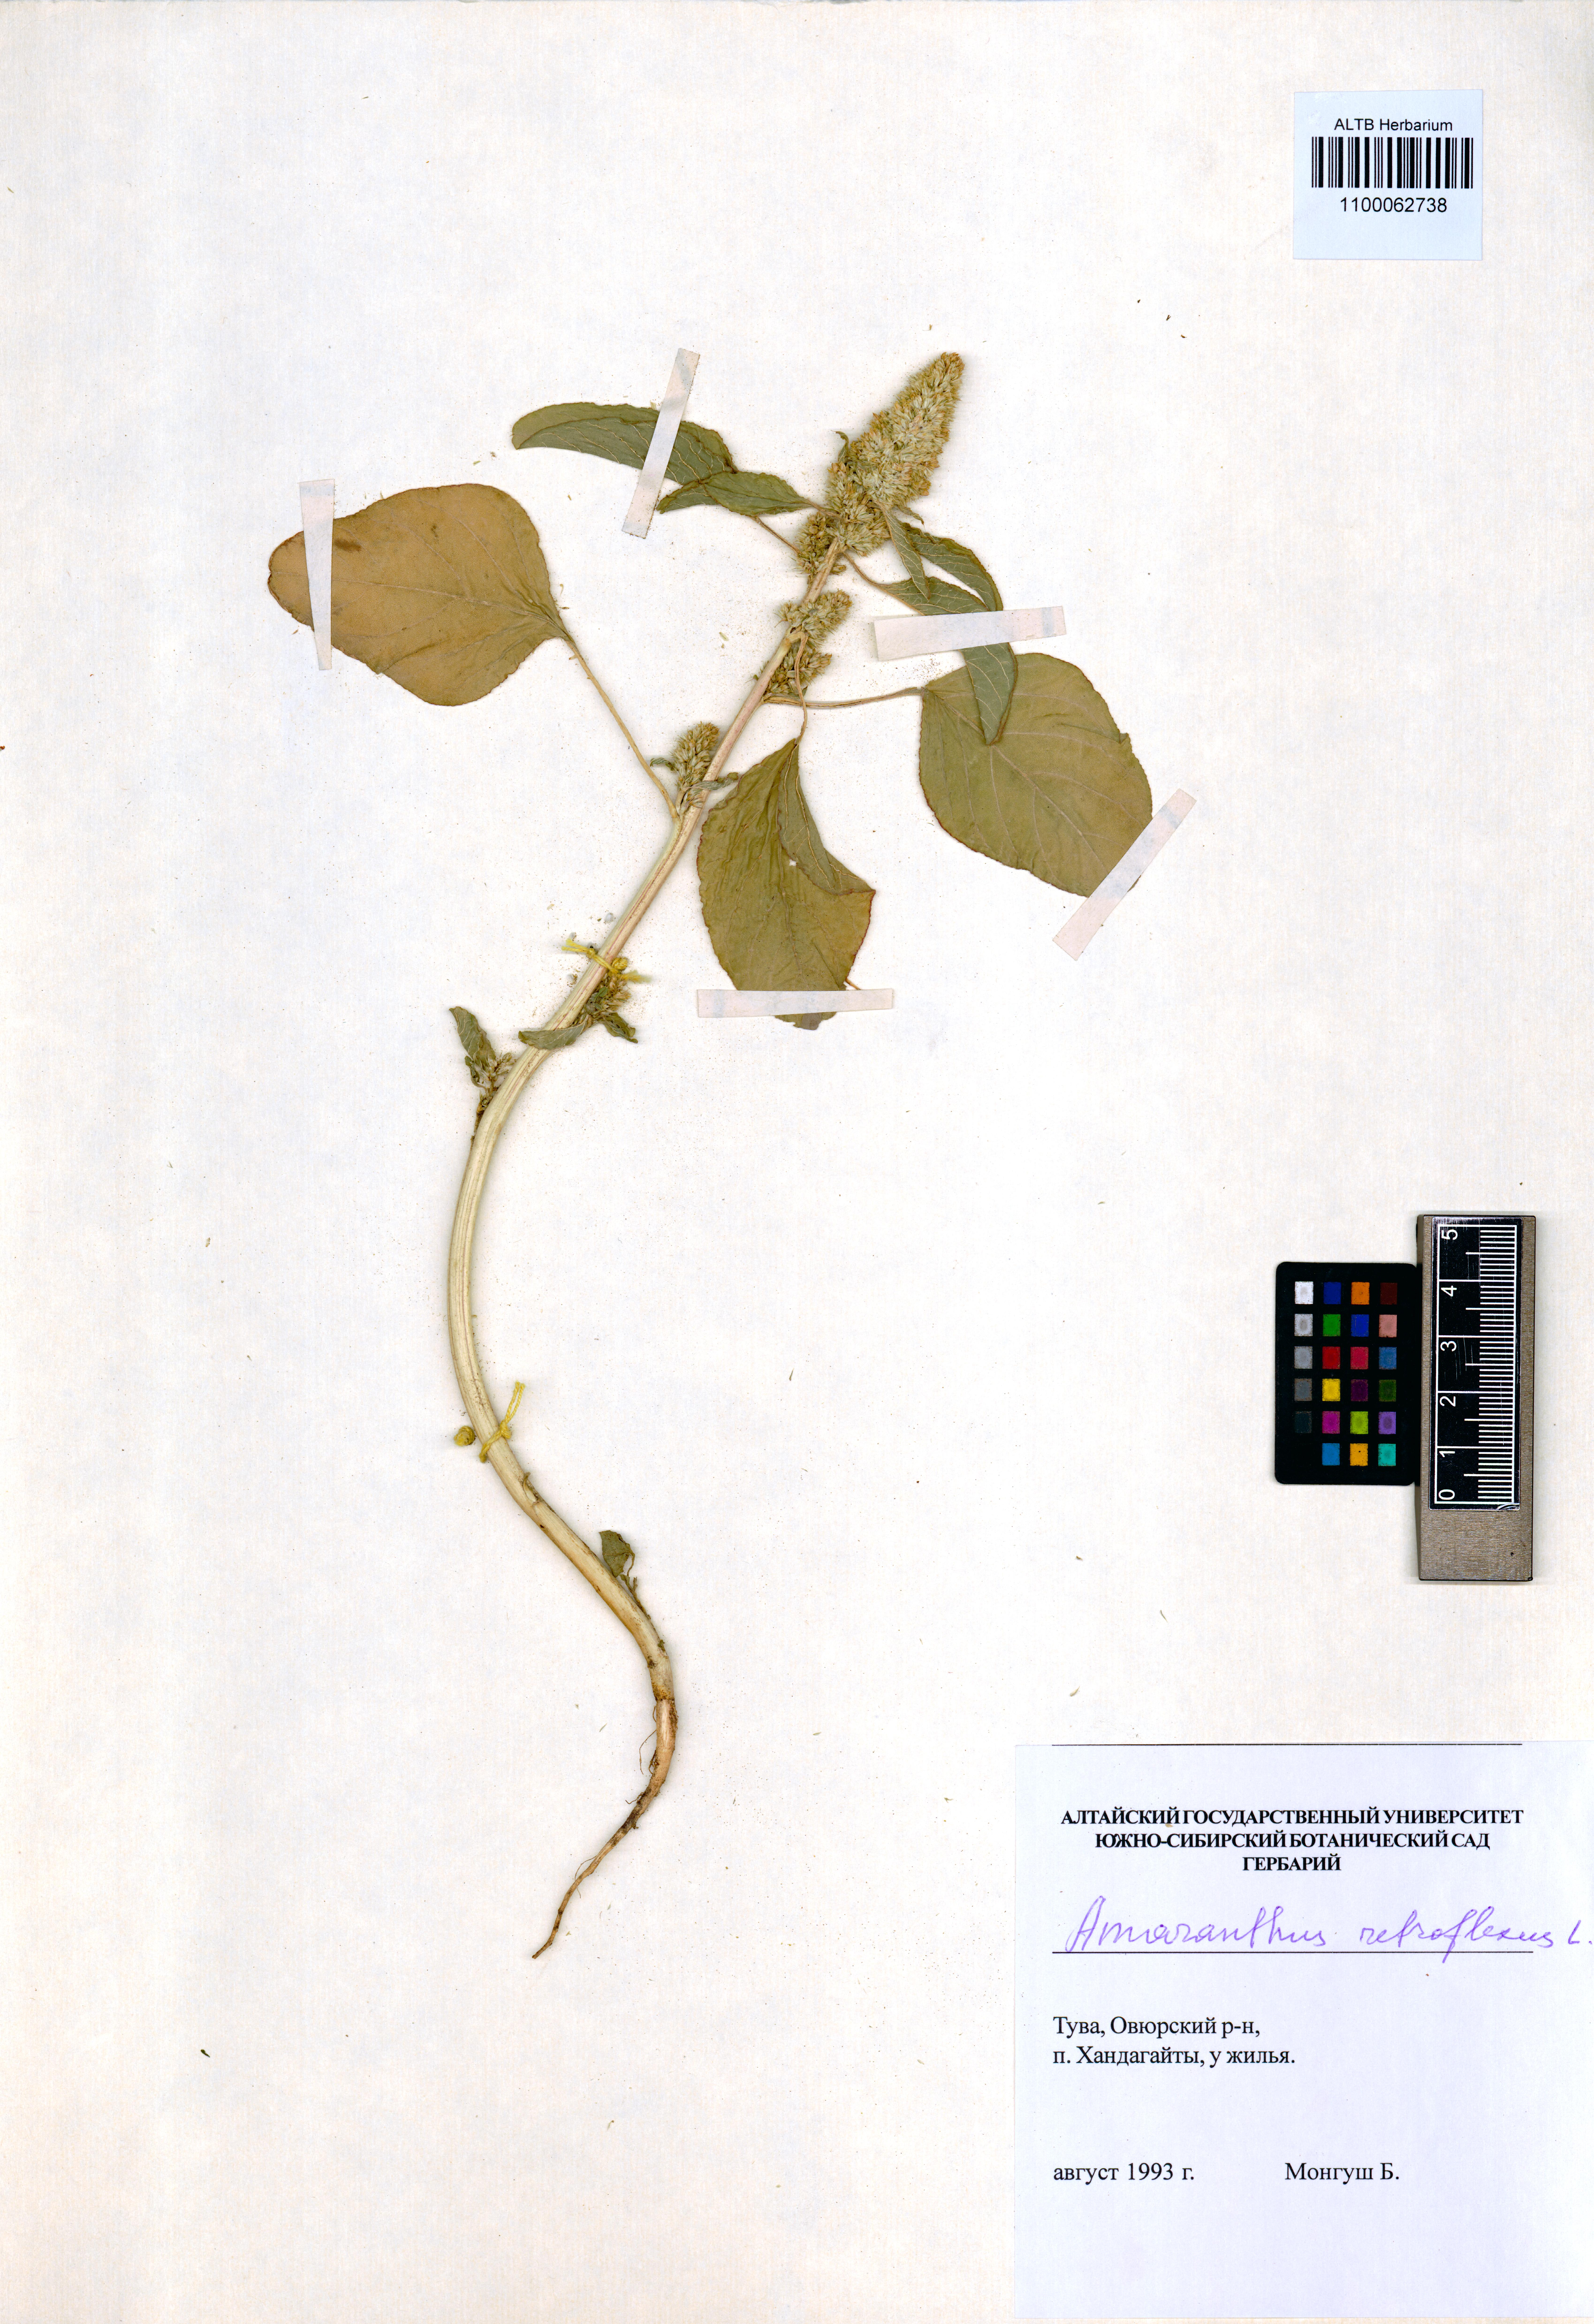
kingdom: Plantae
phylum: Tracheophyta
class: Magnoliopsida
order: Caryophyllales
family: Amaranthaceae
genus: Amaranthus
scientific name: Amaranthus retroflexus
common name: Redroot amaranth
